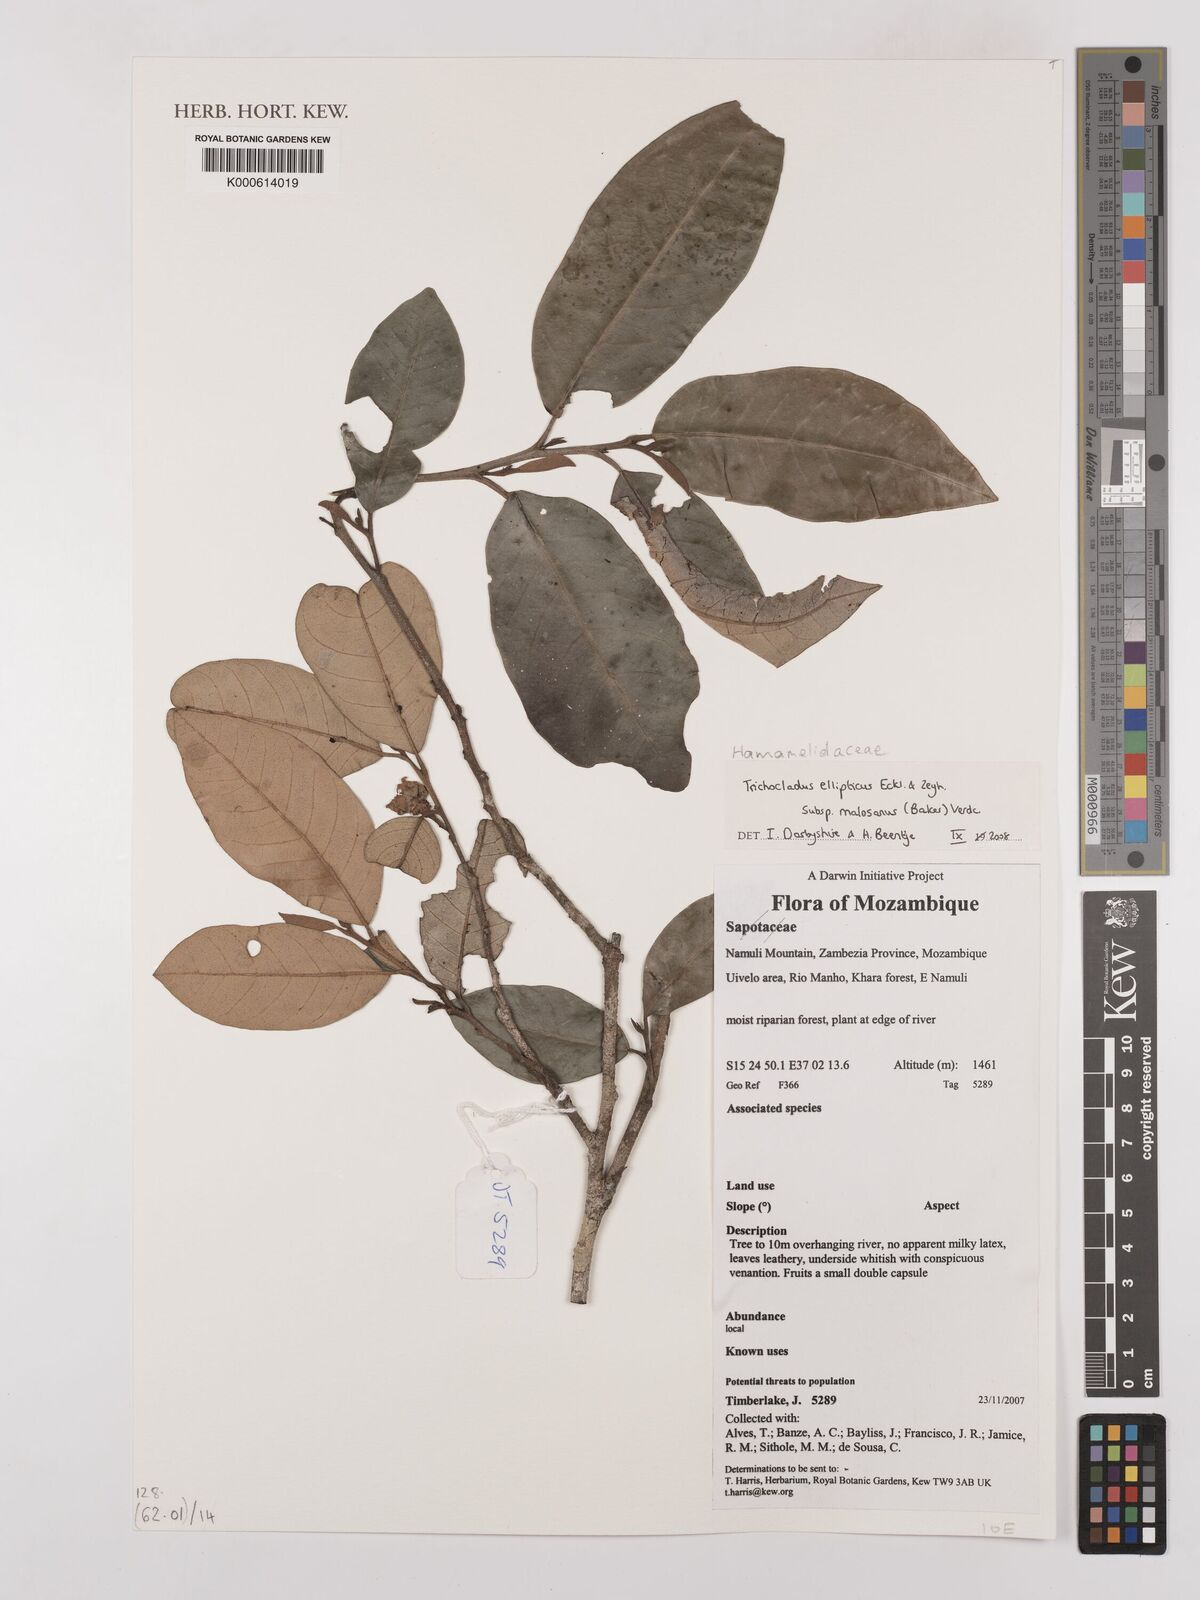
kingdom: Plantae
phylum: Tracheophyta
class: Magnoliopsida
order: Saxifragales
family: Hamamelidaceae
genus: Trichocladus
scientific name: Trichocladus ellipticus
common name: White witch-hazel
